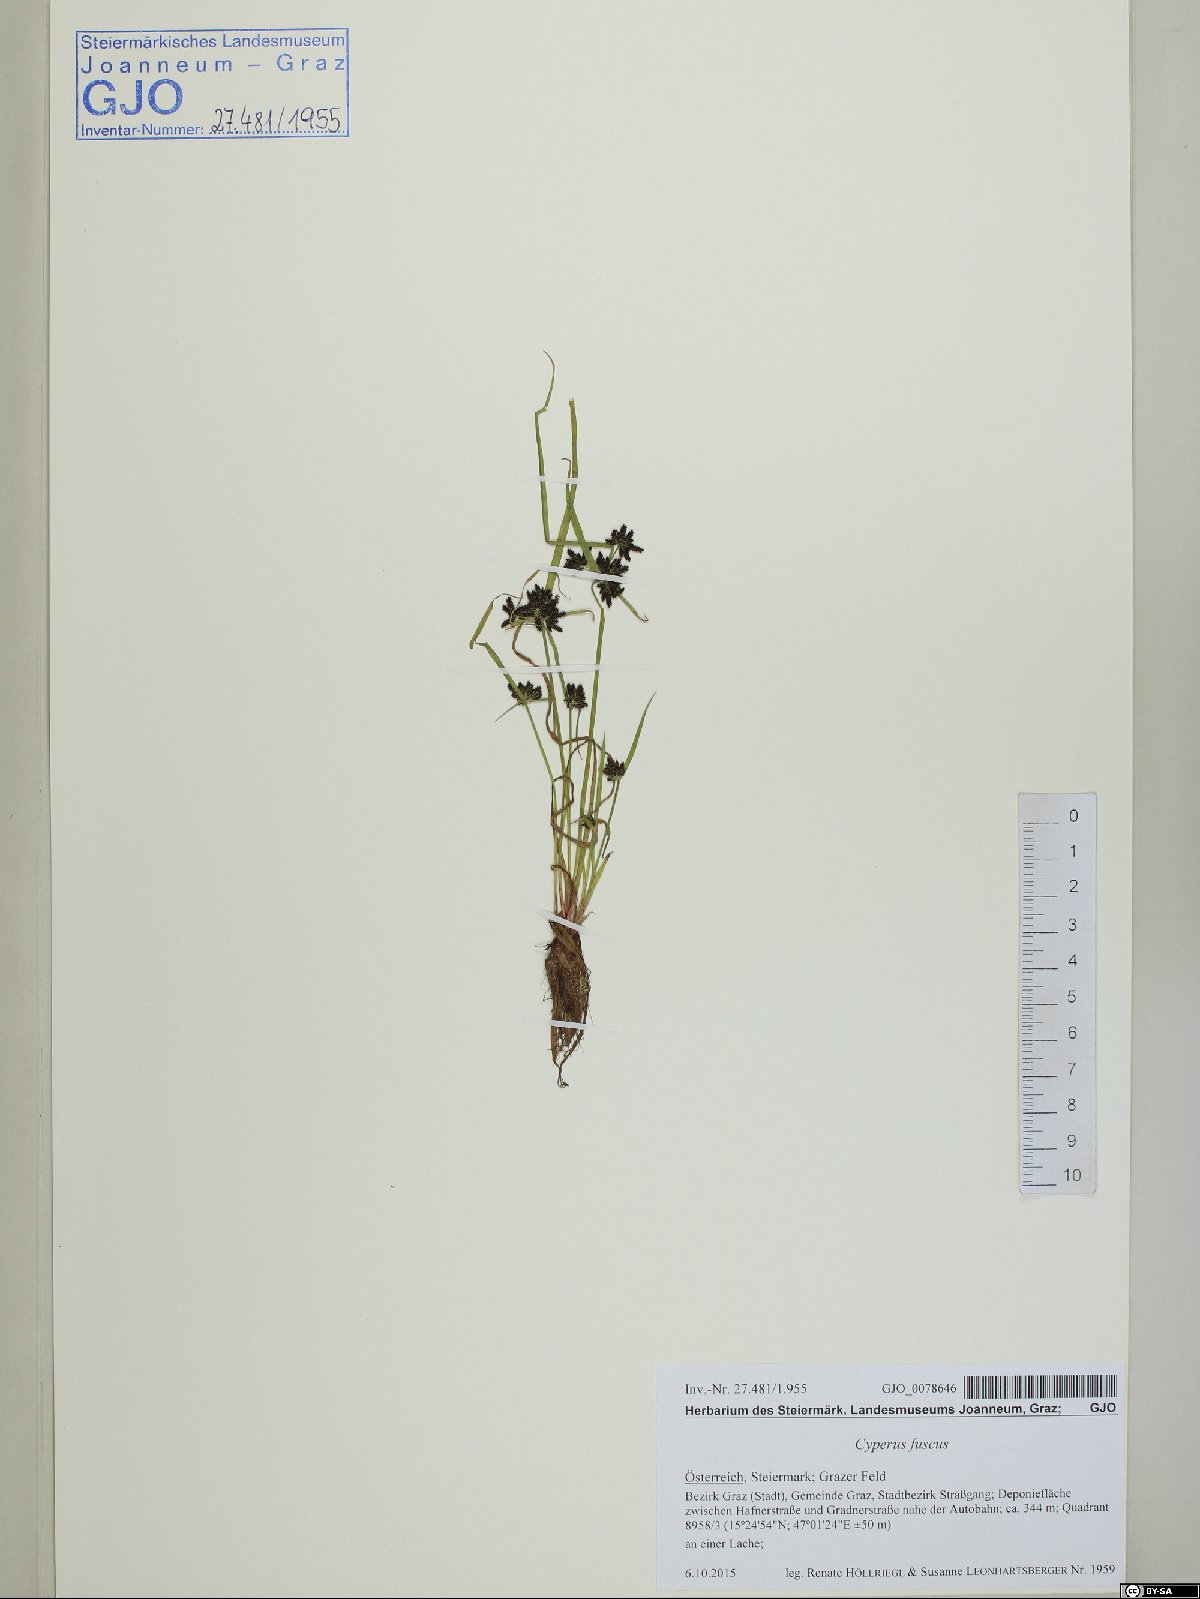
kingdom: Plantae
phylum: Tracheophyta
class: Liliopsida
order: Poales
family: Cyperaceae
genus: Cyperus
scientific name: Cyperus fuscus
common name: Brown galingale
